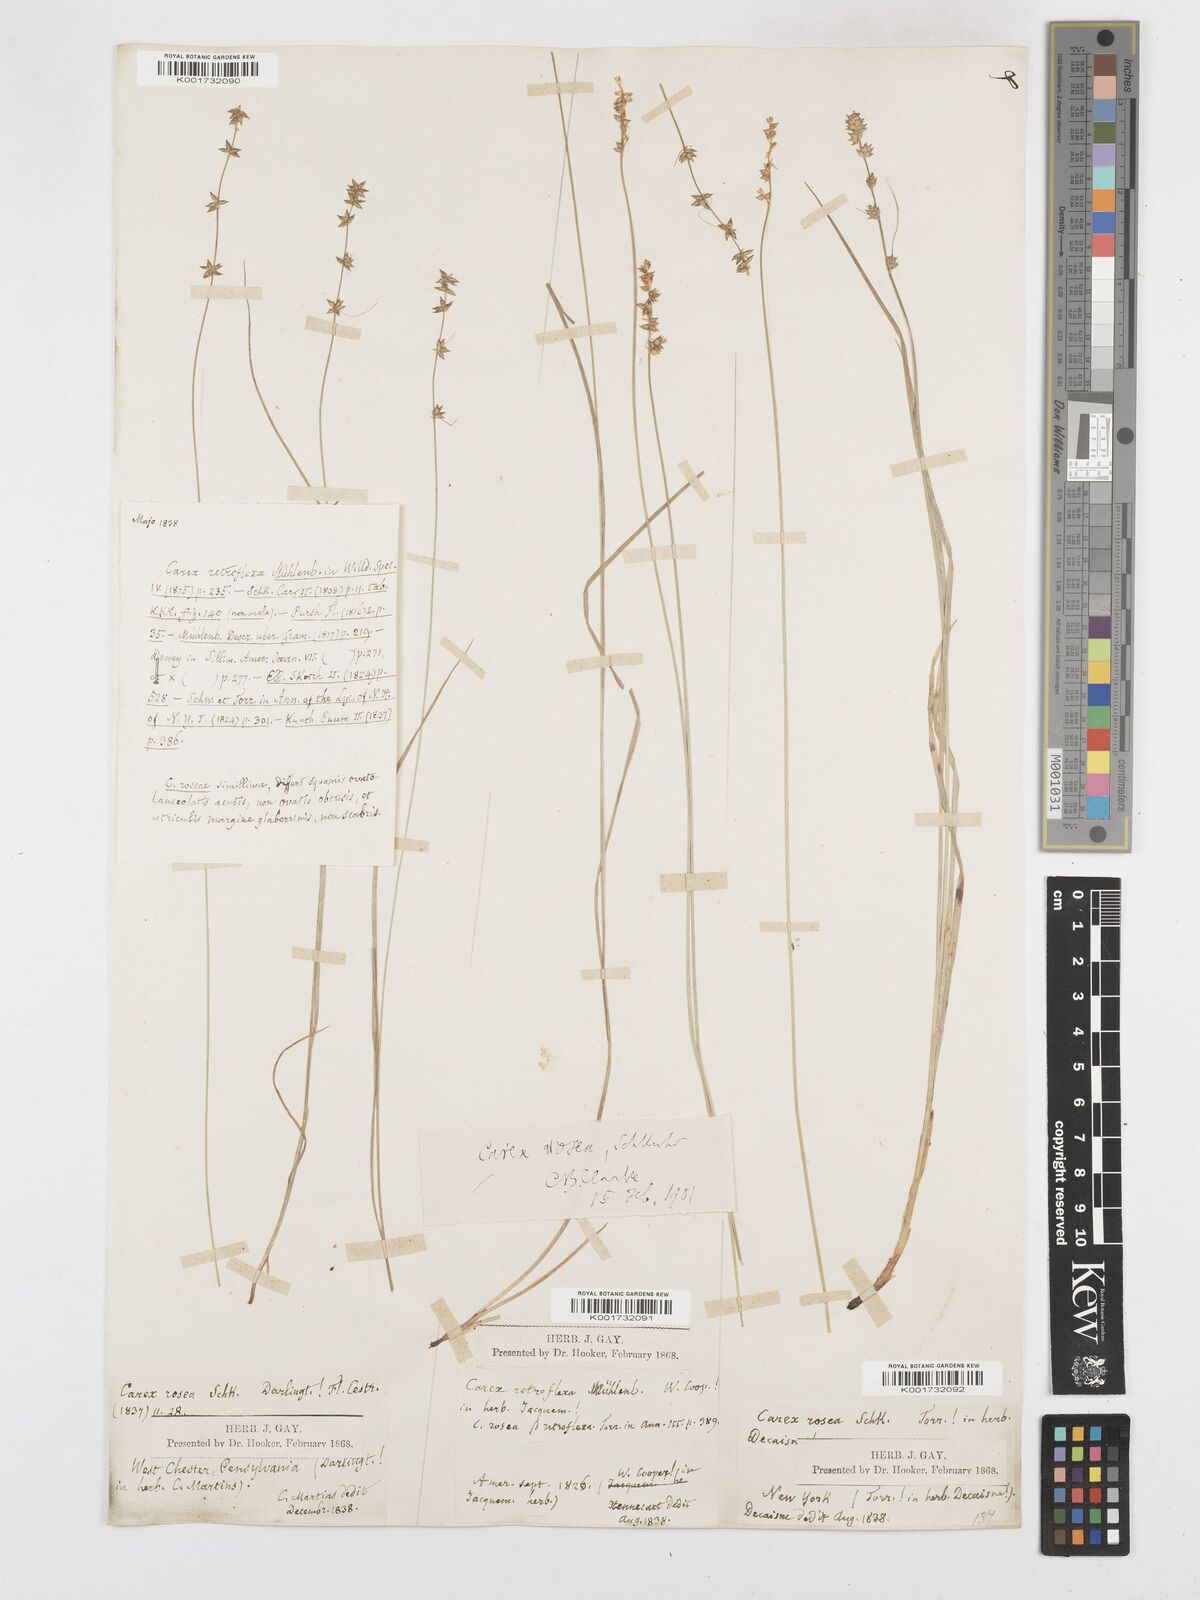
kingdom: Plantae
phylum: Tracheophyta
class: Liliopsida
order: Poales
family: Cyperaceae
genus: Carex
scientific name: Carex rosea
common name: Curly-styled wood sedge
